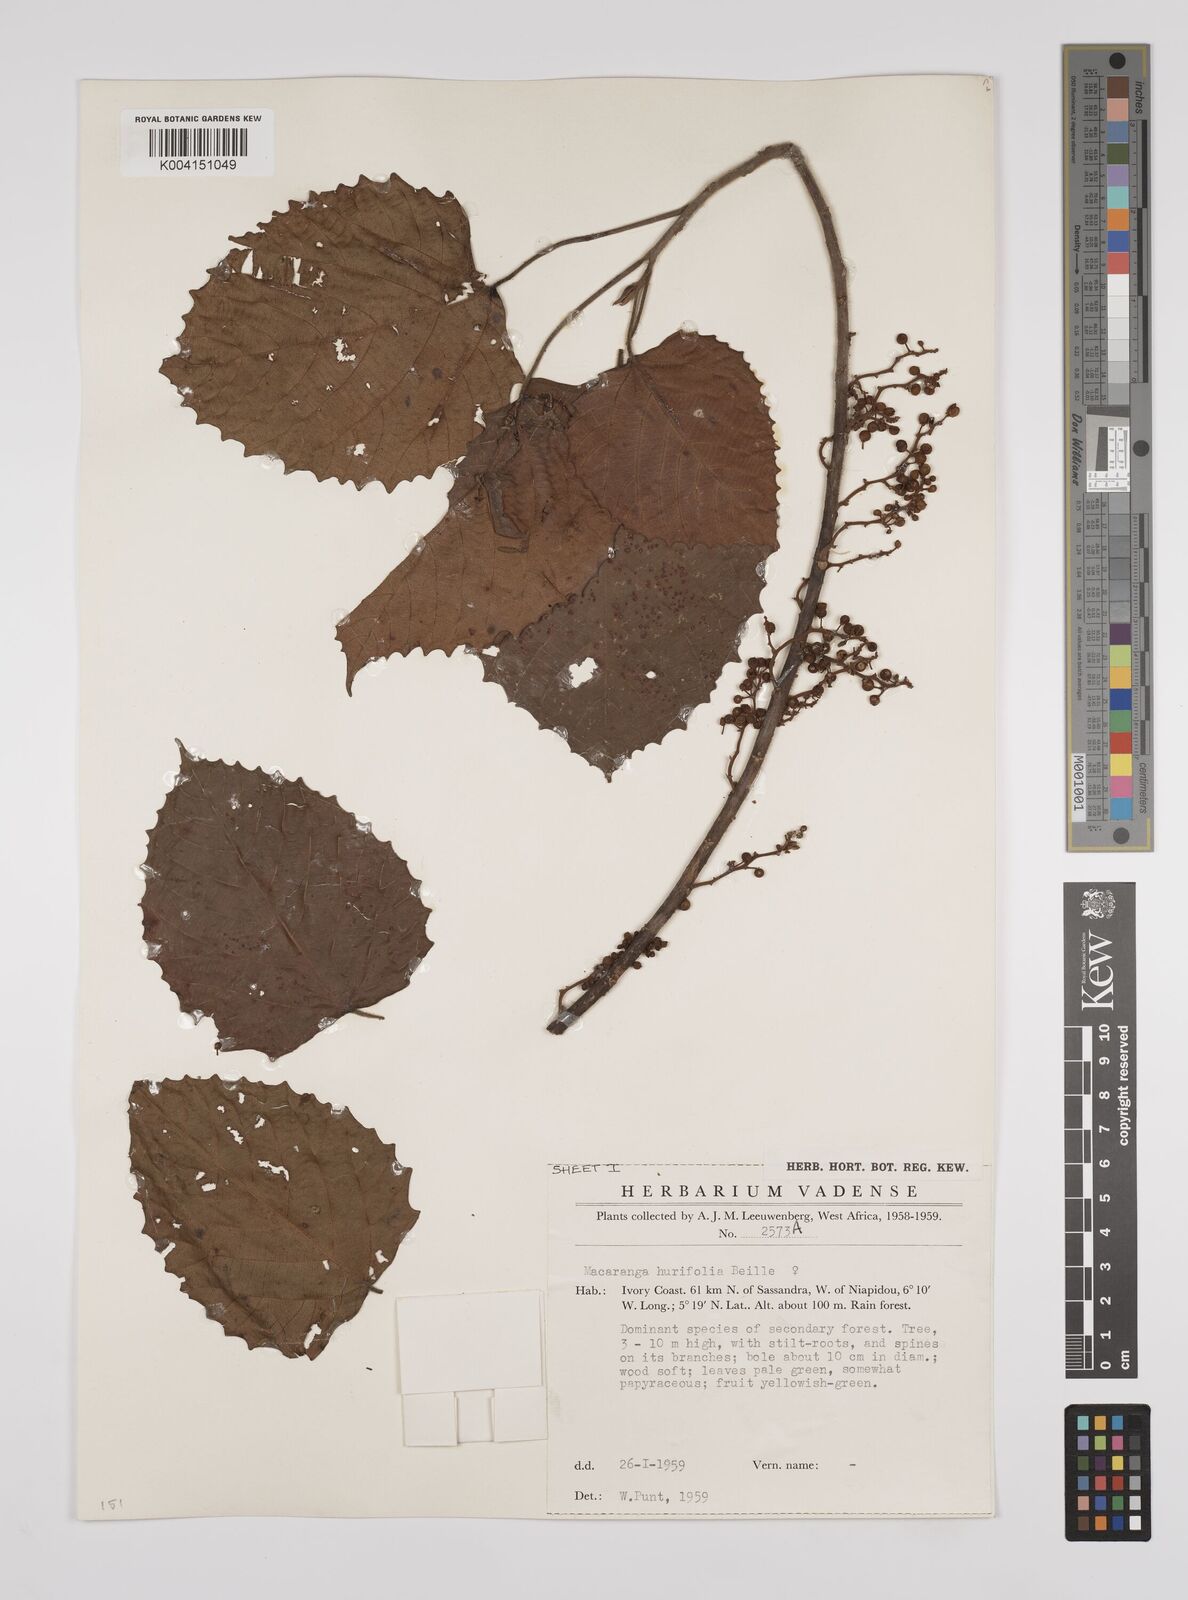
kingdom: Plantae
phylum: Tracheophyta
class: Magnoliopsida
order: Malpighiales
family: Euphorbiaceae
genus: Macaranga
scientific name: Macaranga hurifolia
